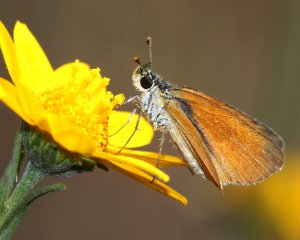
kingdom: Animalia
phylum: Arthropoda
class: Insecta
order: Lepidoptera
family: Hesperiidae
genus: Ancyloxypha
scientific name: Ancyloxypha arene
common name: Tropical Least Skipper
